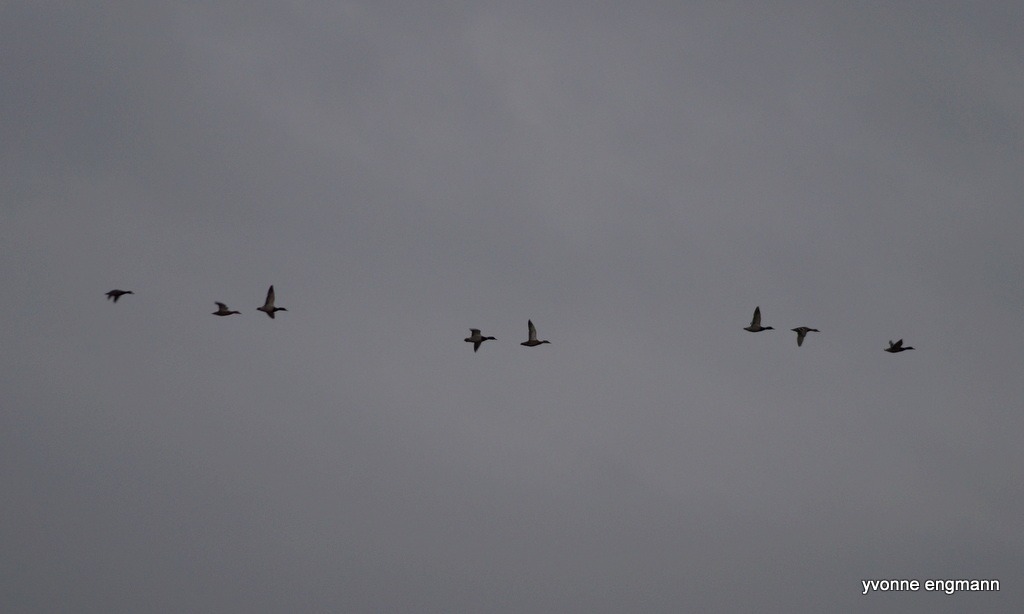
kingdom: Animalia
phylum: Chordata
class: Aves
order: Anseriformes
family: Anatidae
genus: Anas
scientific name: Anas platyrhynchos
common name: Gråand
